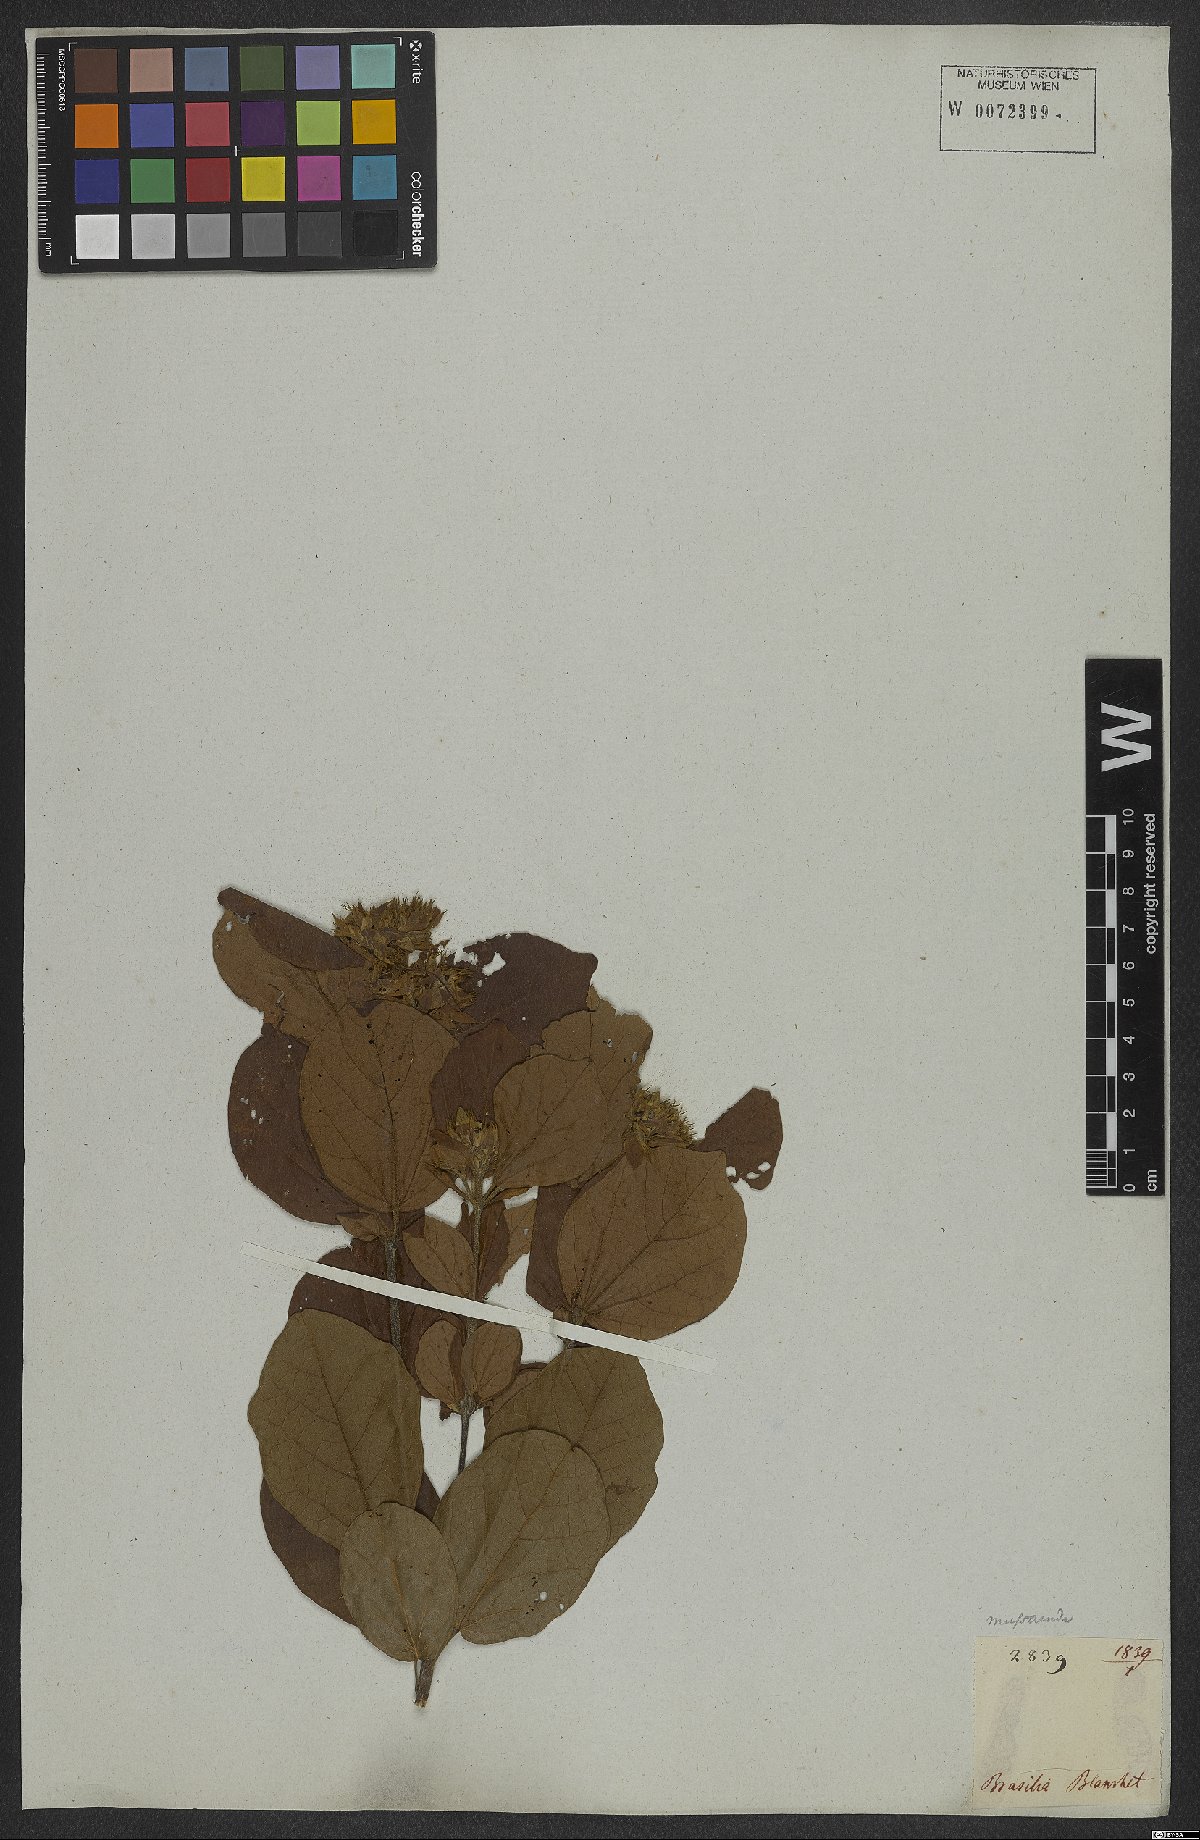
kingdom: Plantae
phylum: Tracheophyta
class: Magnoliopsida
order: Lamiales
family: Bignoniaceae
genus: Cuspidaria
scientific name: Cuspidaria simplicifolia
